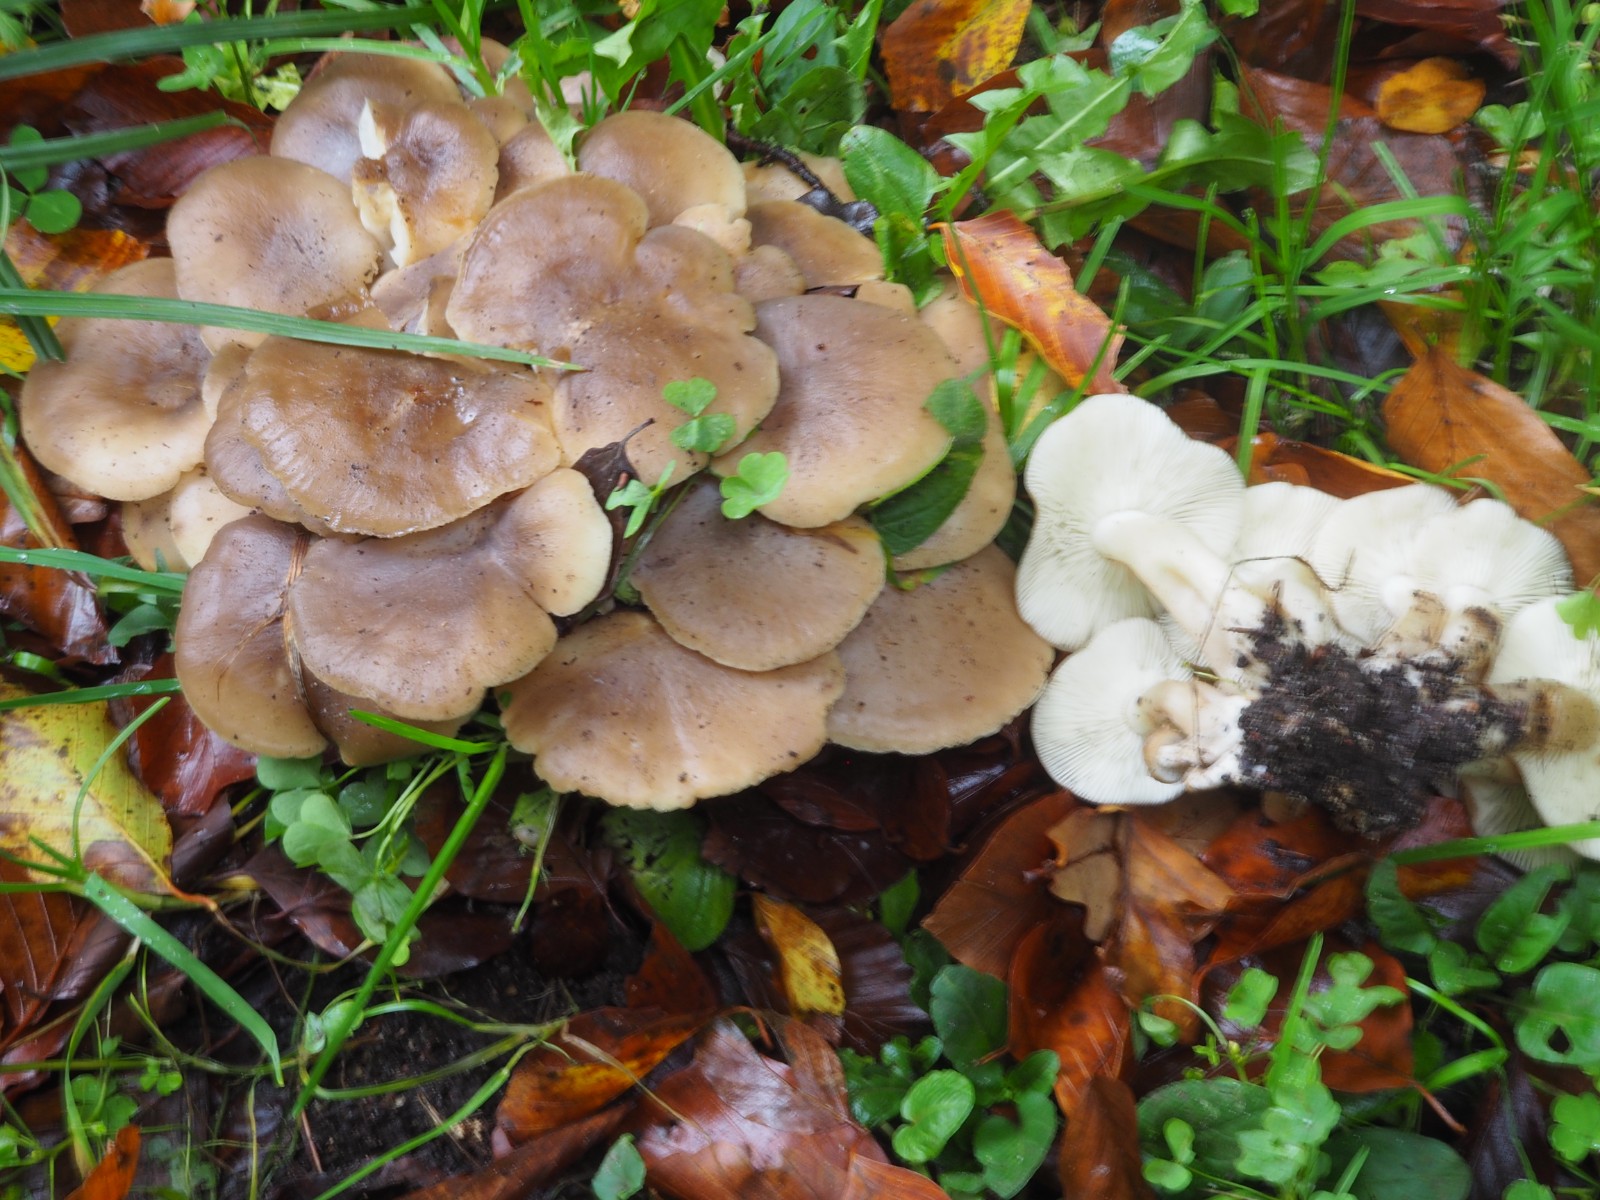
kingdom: Fungi
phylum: Basidiomycota
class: Agaricomycetes
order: Agaricales
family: Lyophyllaceae
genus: Lyophyllum
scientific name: Lyophyllum decastes
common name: røggrå gråblad
